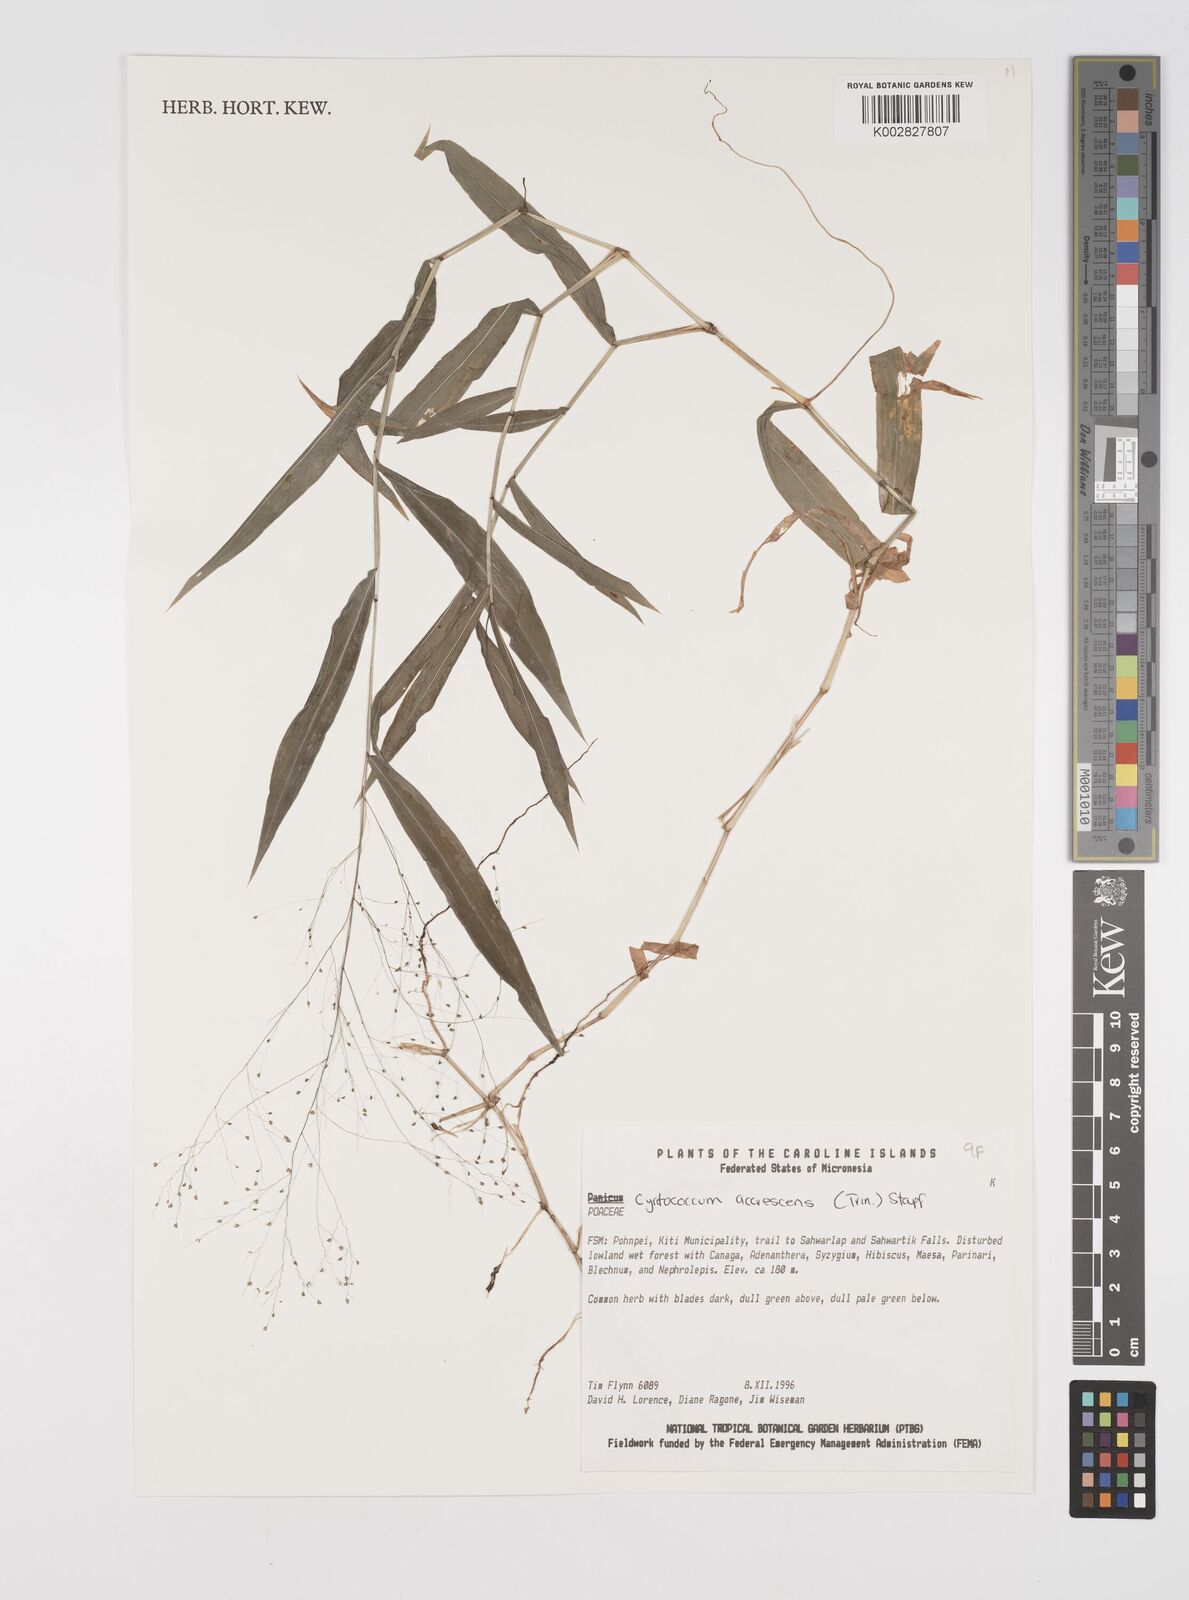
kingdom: Plantae
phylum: Tracheophyta
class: Liliopsida
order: Poales
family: Poaceae
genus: Cyrtococcum
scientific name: Cyrtococcum accrescens
